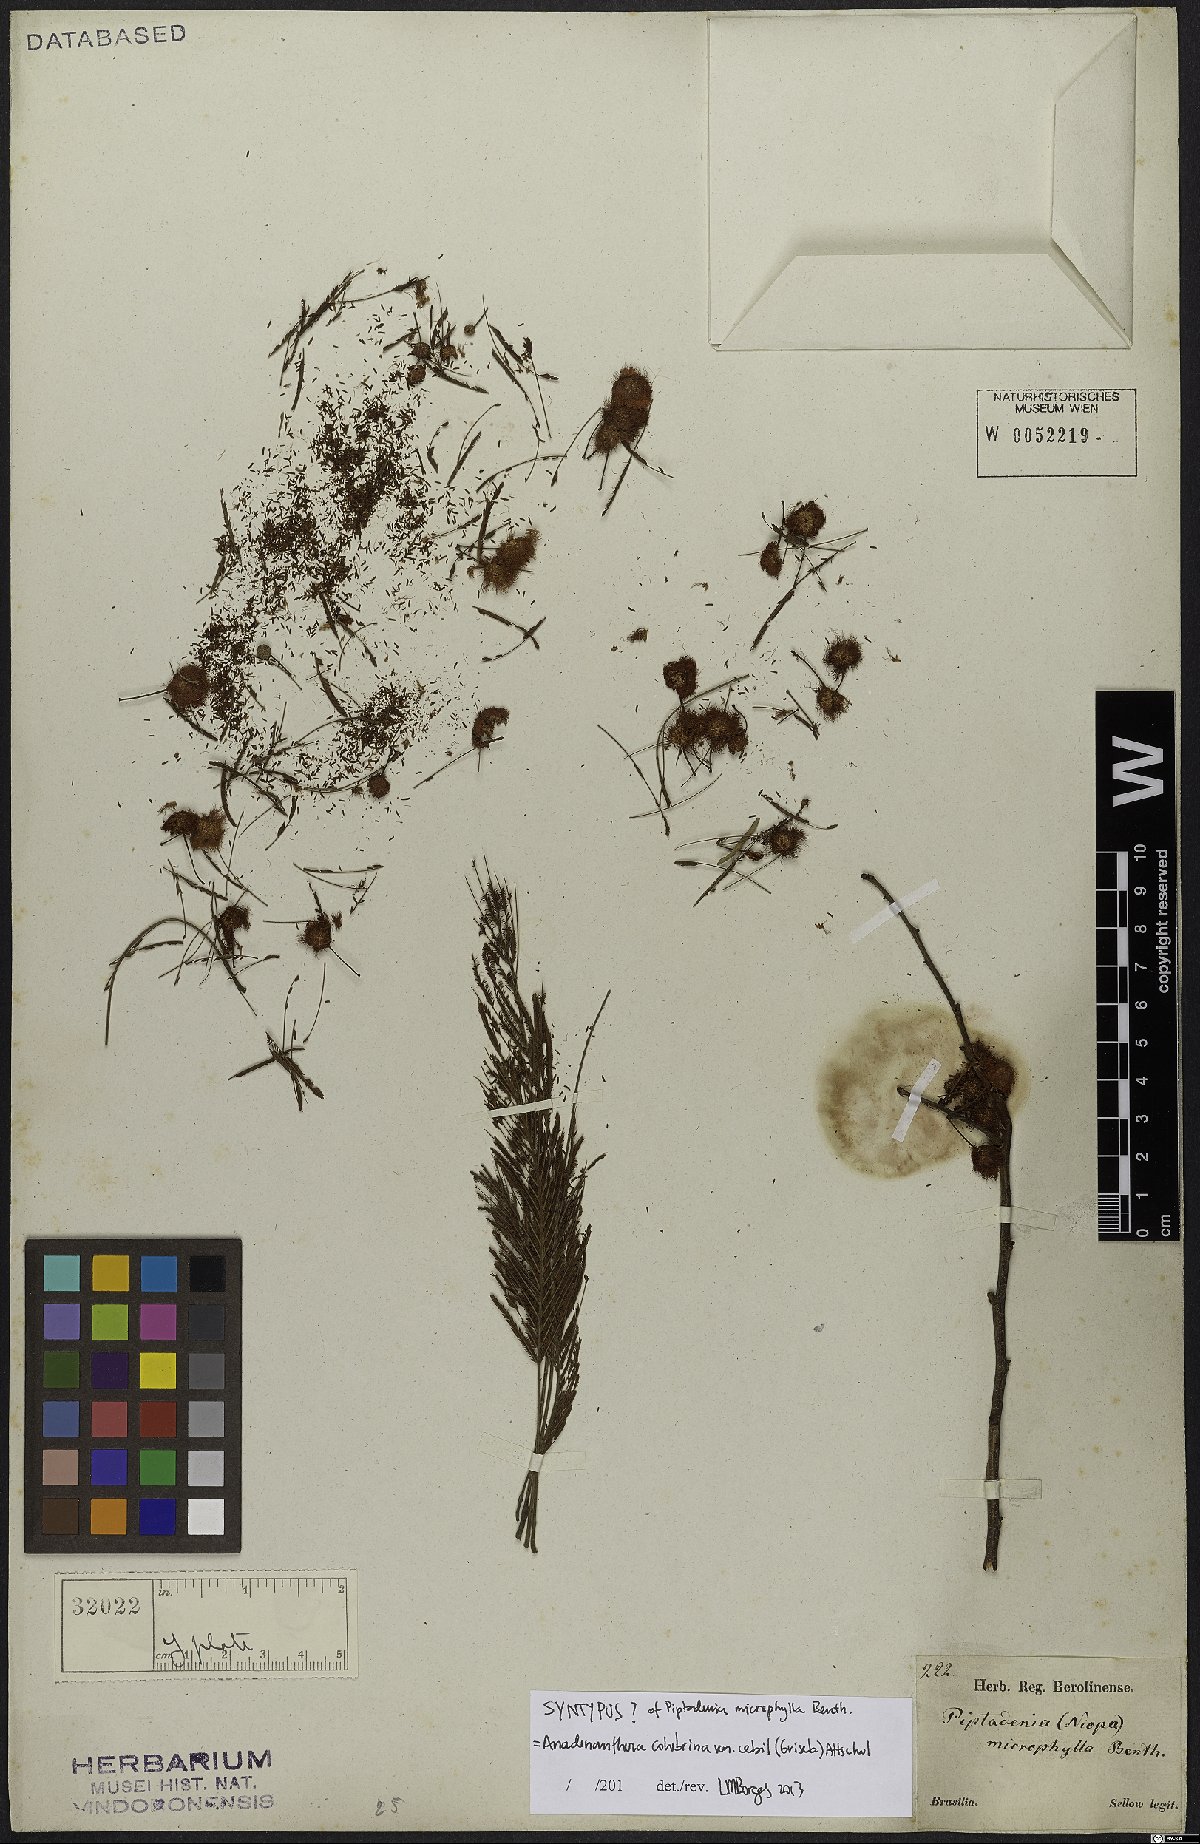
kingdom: Plantae
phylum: Tracheophyta
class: Magnoliopsida
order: Fabales
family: Fabaceae
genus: Anadenanthera
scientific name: Anadenanthera colubrina
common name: Curupay
